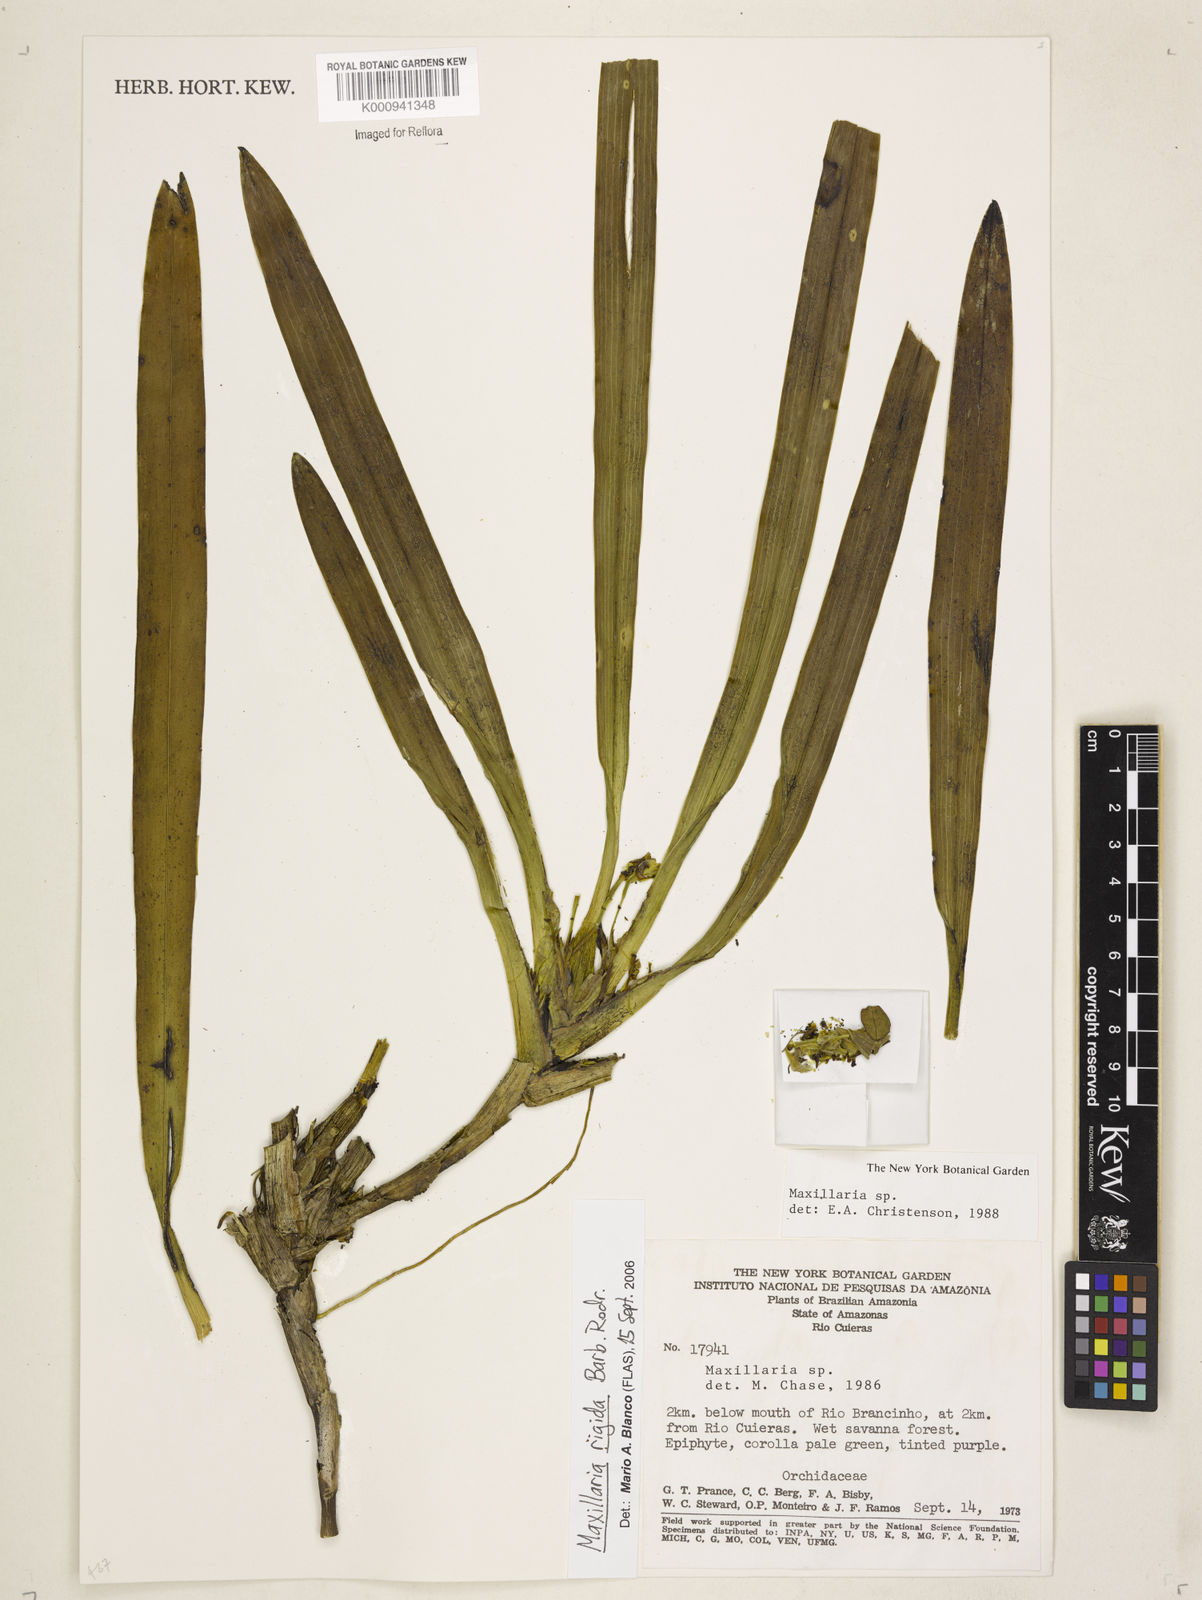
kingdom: Plantae
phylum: Tracheophyta
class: Liliopsida
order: Asparagales
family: Orchidaceae
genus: Maxillaria
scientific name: Maxillaria rigida
